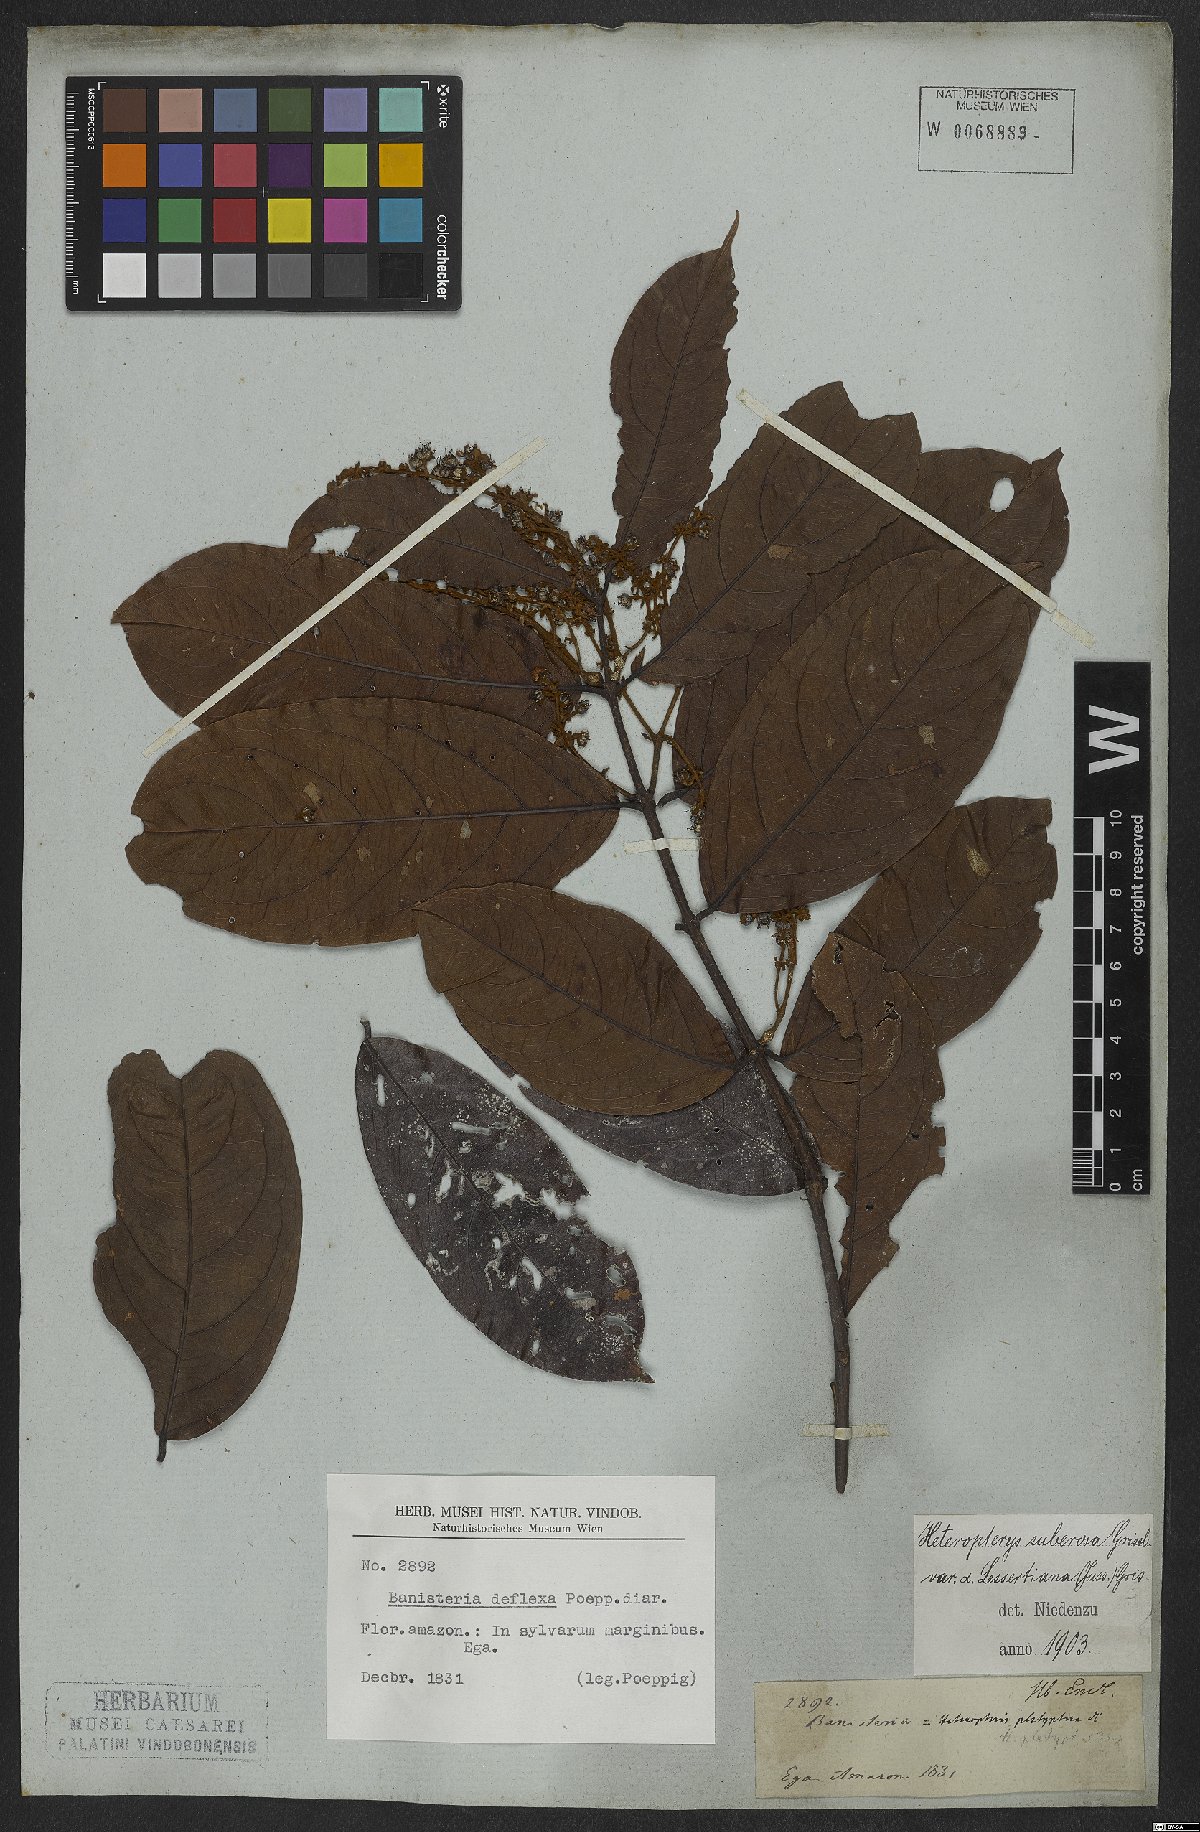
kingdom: Plantae
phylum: Tracheophyta
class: Magnoliopsida
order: Malpighiales
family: Malpighiaceae
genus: Heteropterys
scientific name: Heteropterys nervosa
